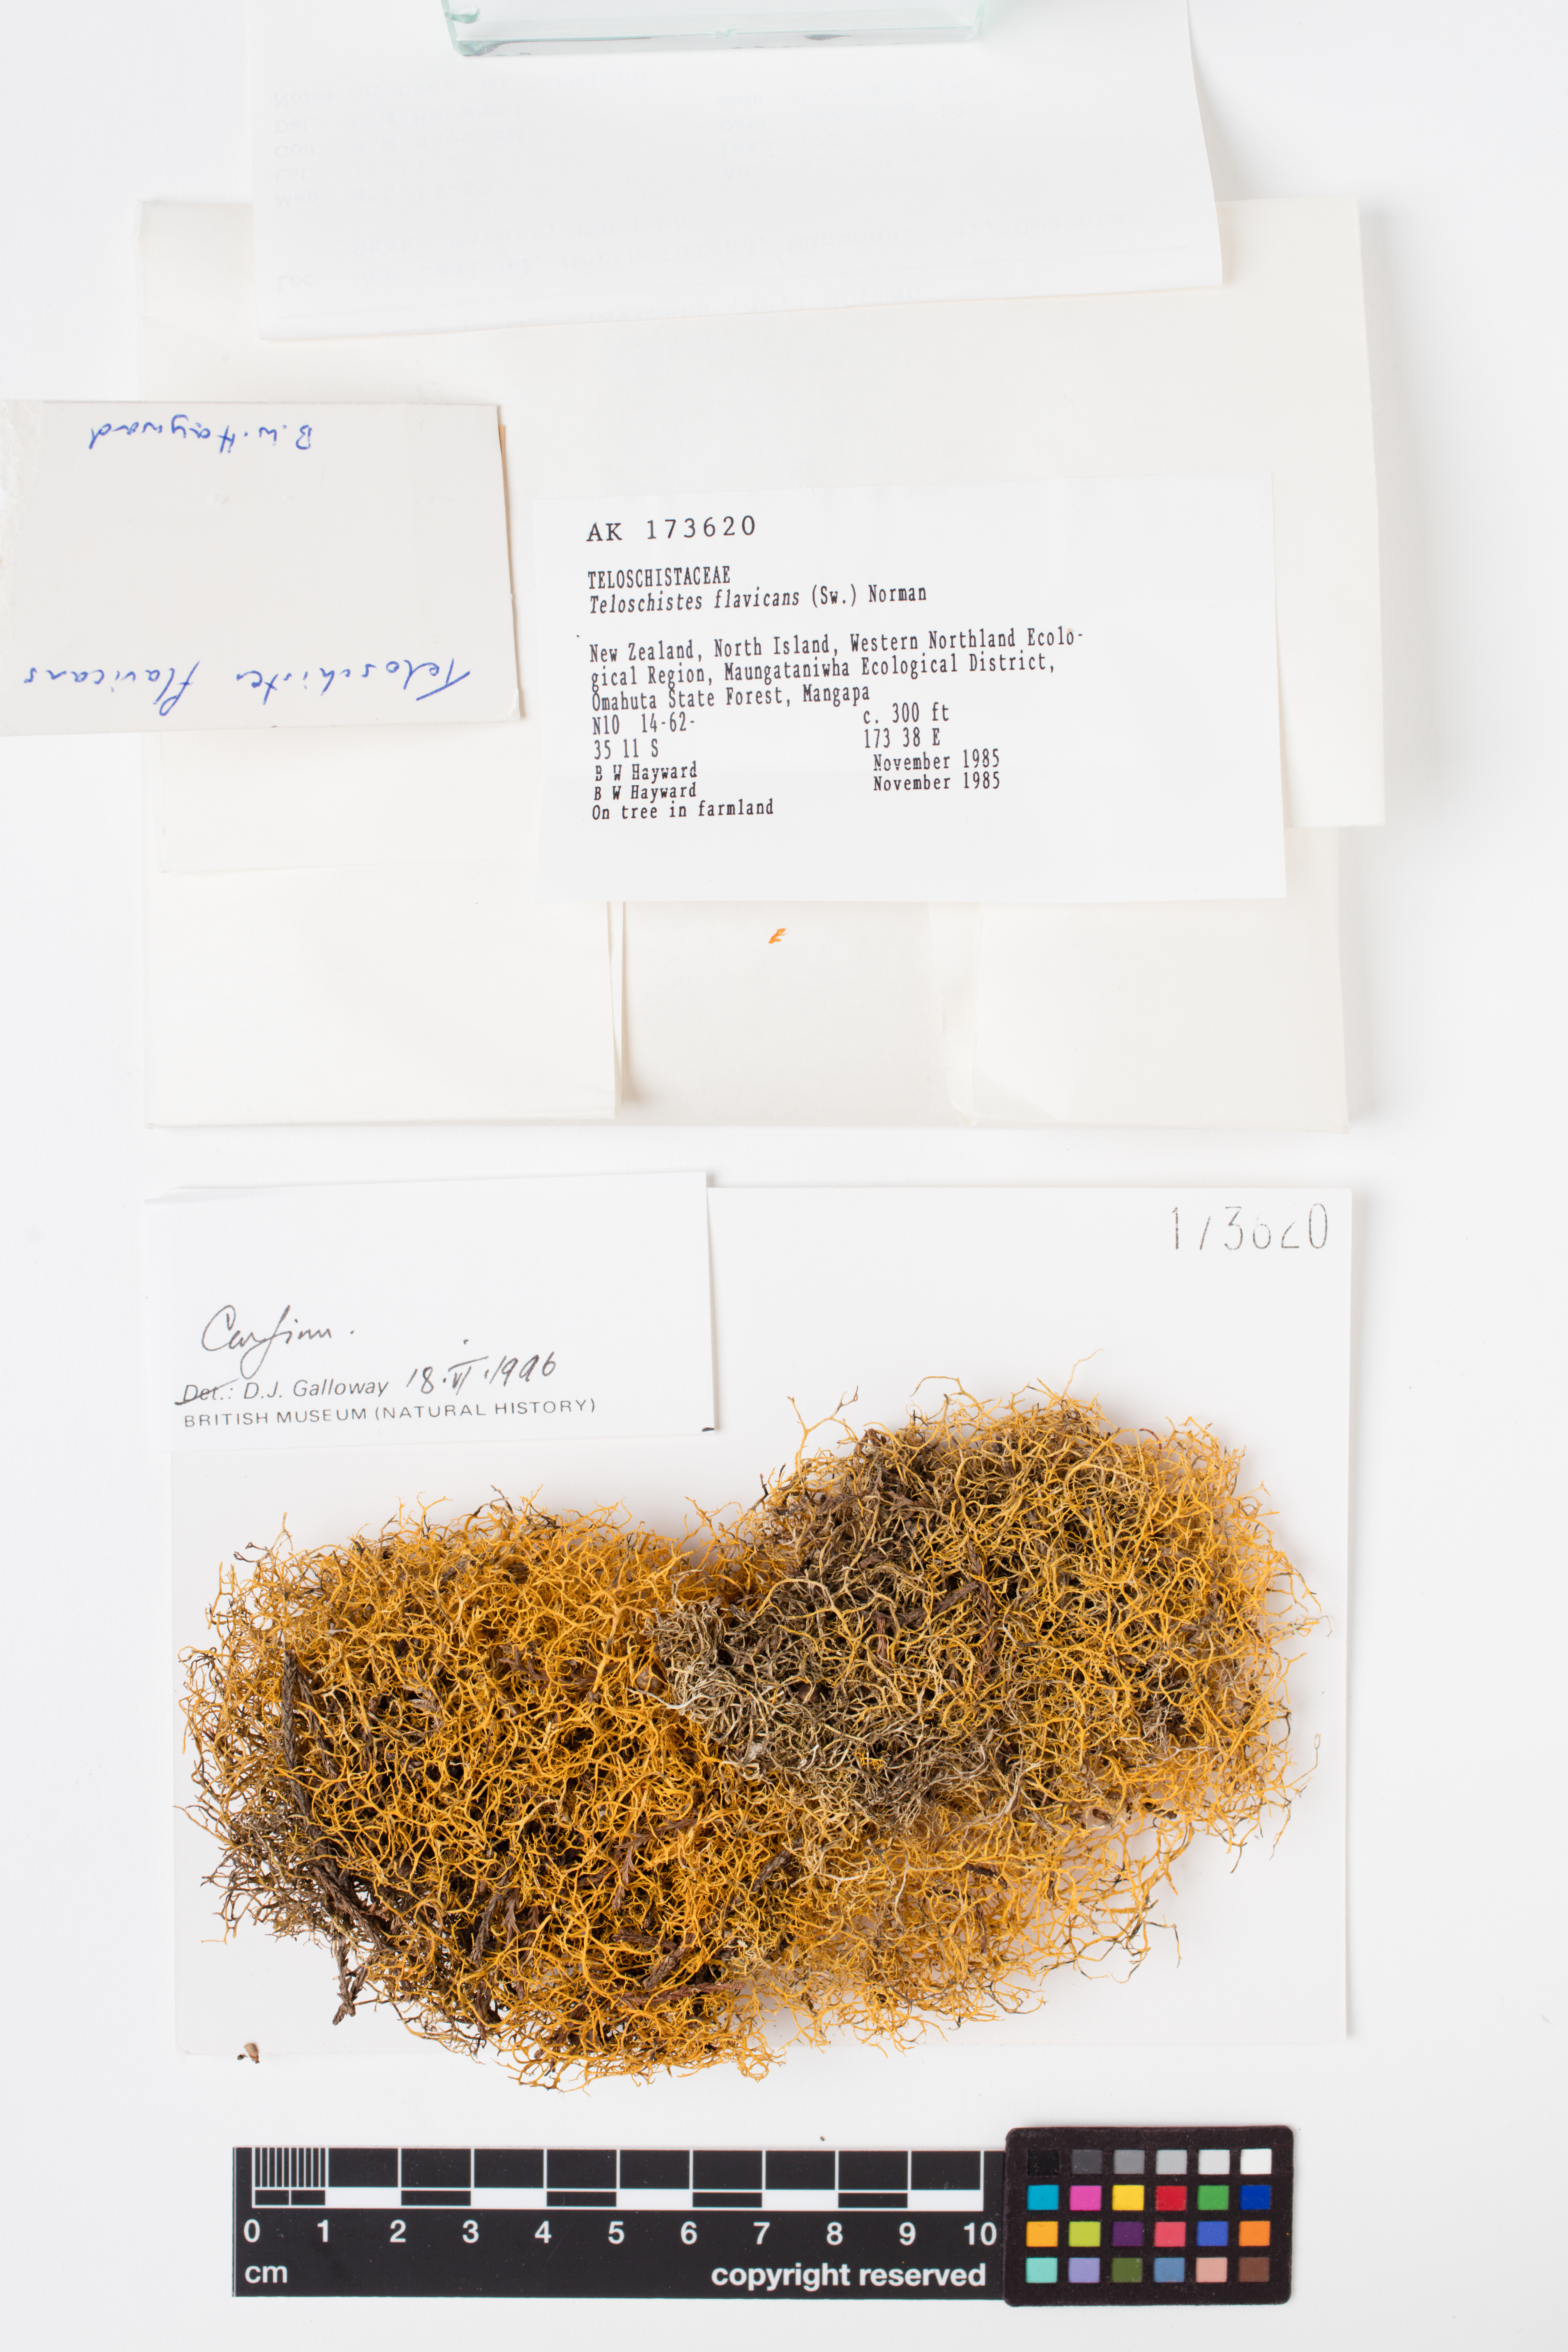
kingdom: Fungi
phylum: Ascomycota
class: Lecanoromycetes
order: Teloschistales
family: Teloschistaceae
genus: Teloschistes
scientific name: Teloschistes flavicans
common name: Golden hair-lichen
